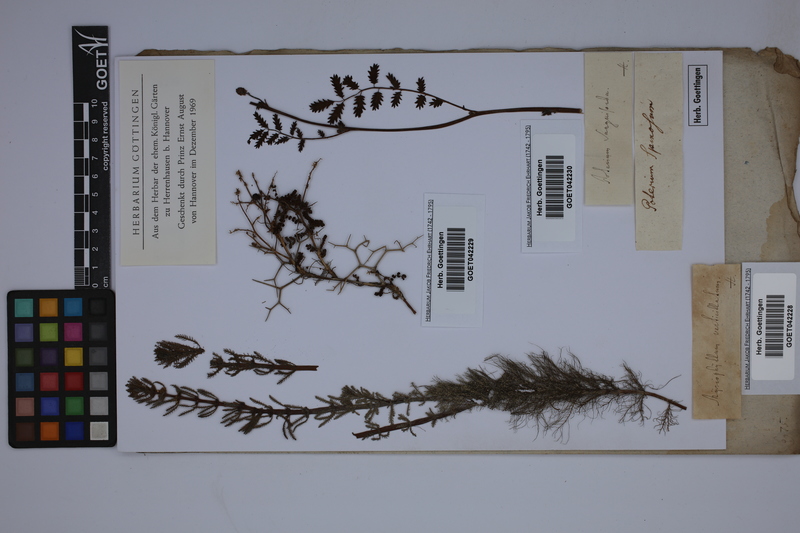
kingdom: Plantae
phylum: Tracheophyta
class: Magnoliopsida
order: Saxifragales
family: Haloragaceae
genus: Myriophyllum
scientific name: Myriophyllum verticillatum
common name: Whorled water-milfoil
